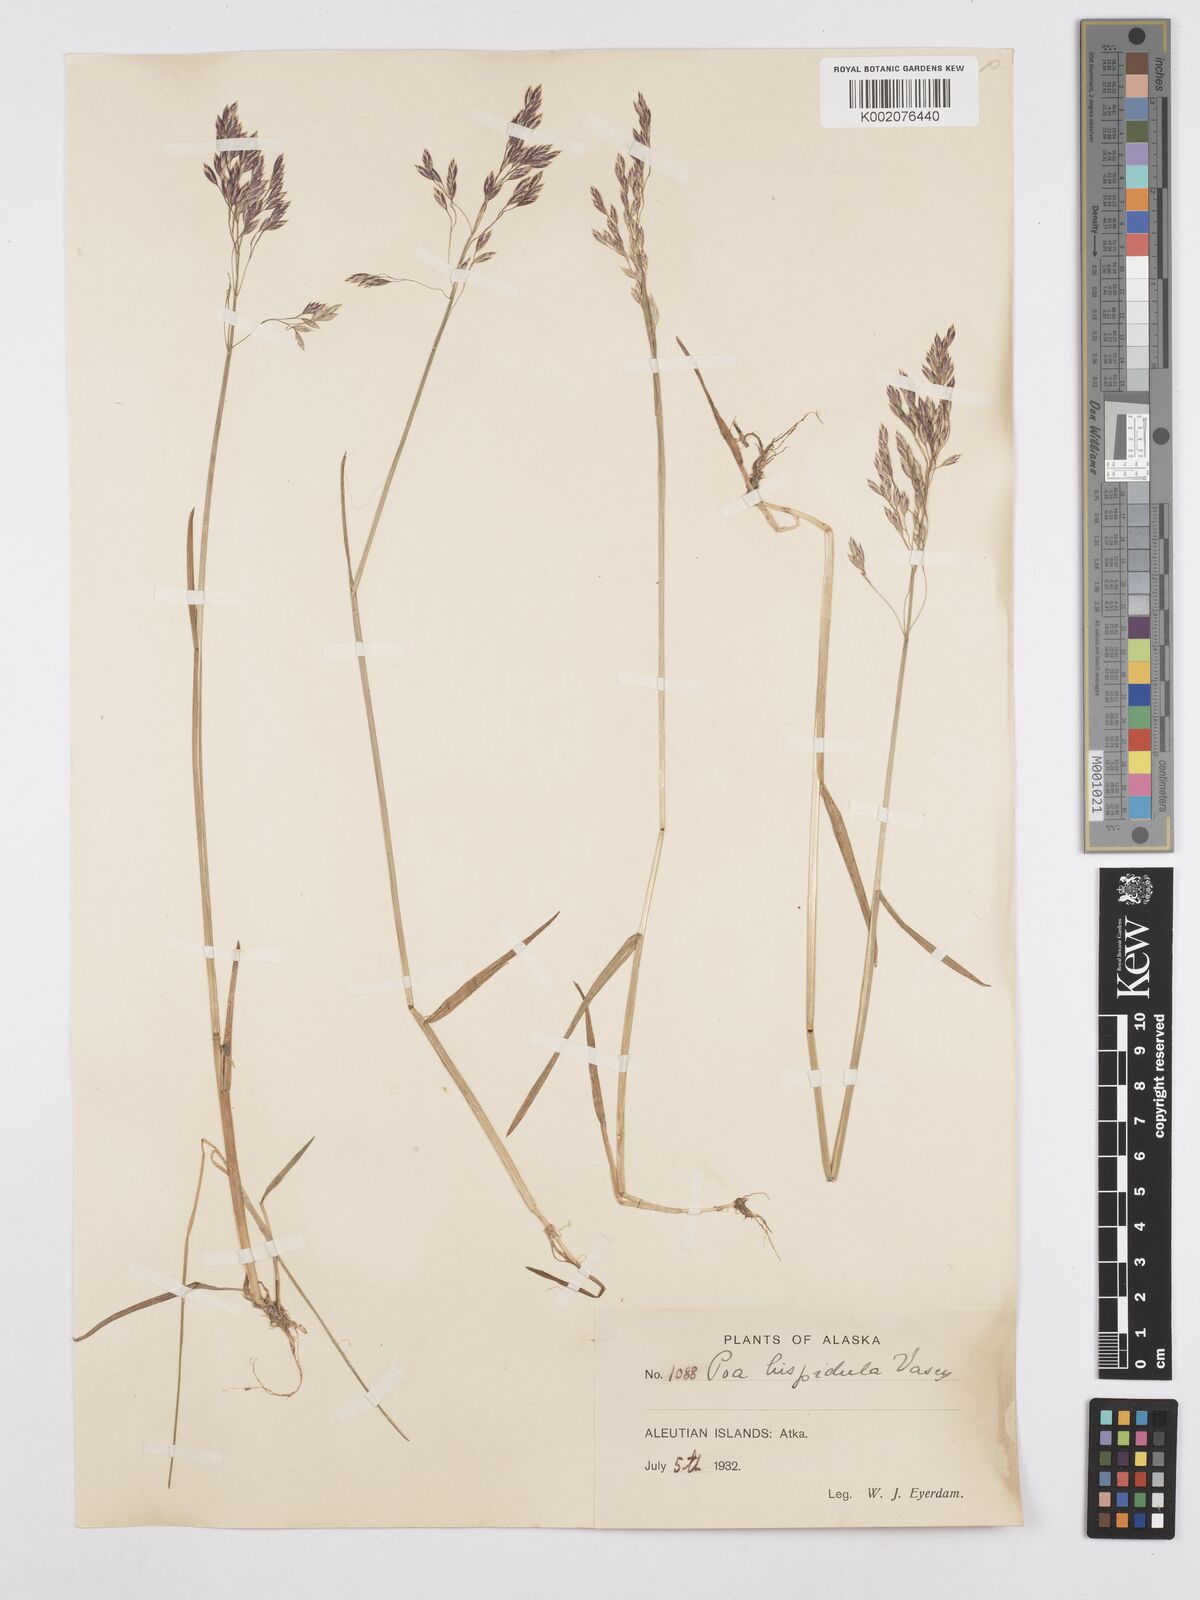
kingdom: Plantae
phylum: Tracheophyta
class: Liliopsida
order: Poales
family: Poaceae
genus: Poa
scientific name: Poa macrocalyx
